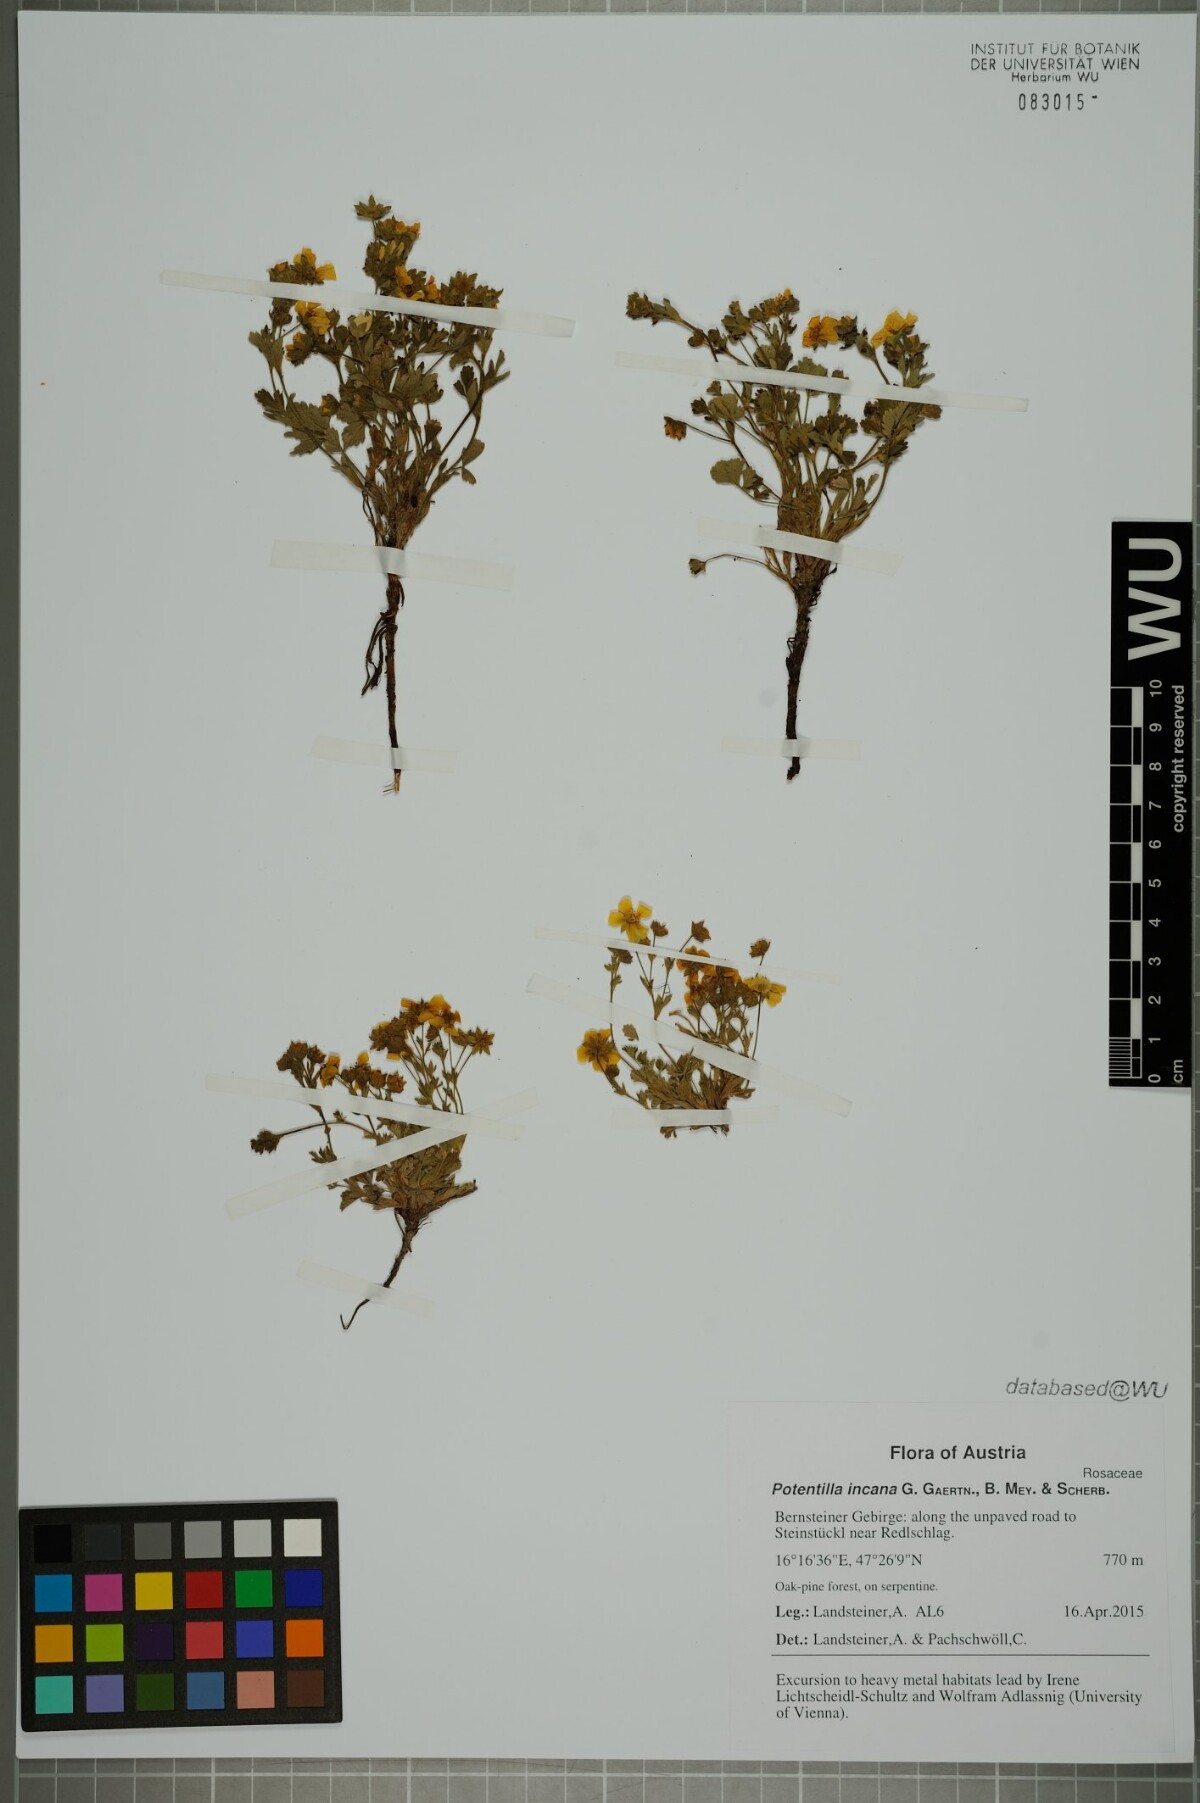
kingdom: Plantae
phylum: Tracheophyta
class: Magnoliopsida
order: Rosales
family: Rosaceae
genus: Potentilla
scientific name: Potentilla cinerea
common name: Ashy cinquefoil
